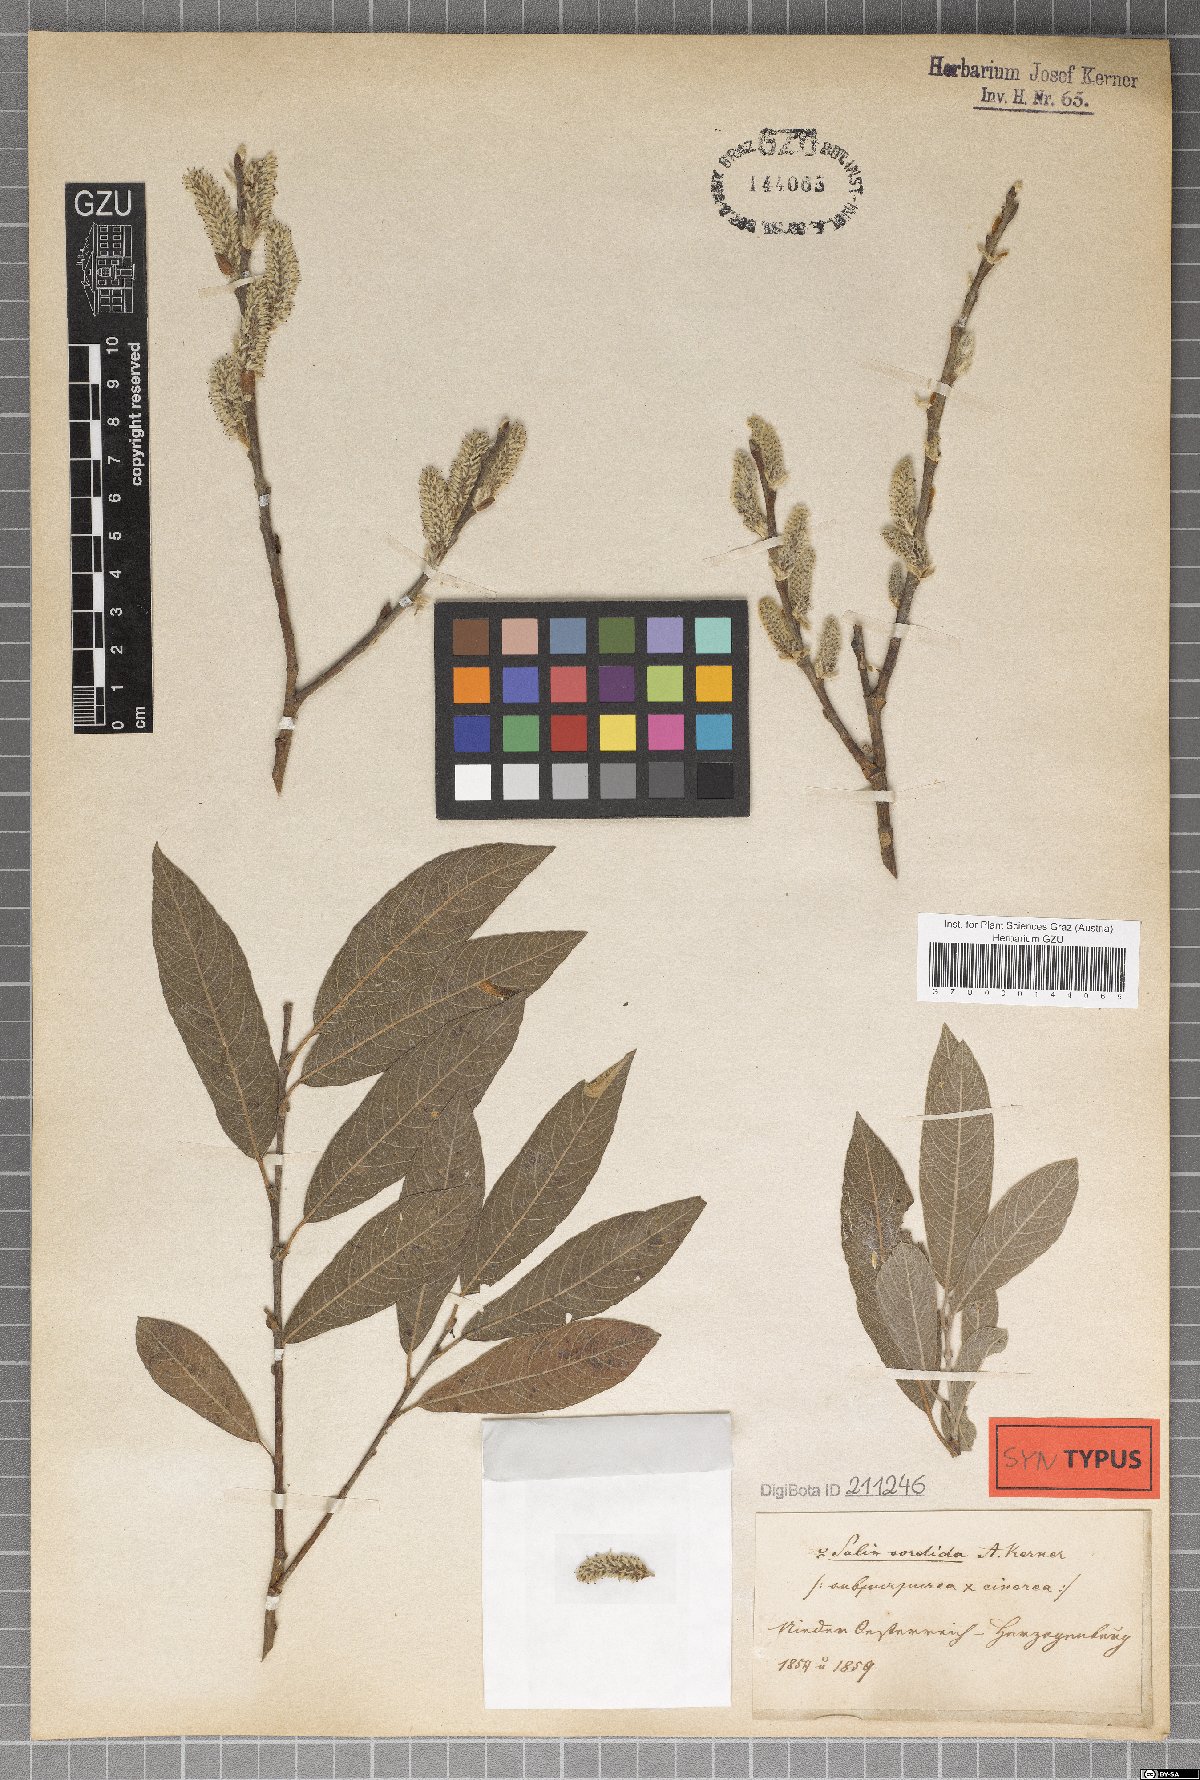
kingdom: Plantae
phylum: Tracheophyta
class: Magnoliopsida
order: Malpighiales
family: Salicaceae
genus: Salix
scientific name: Salix sordida
